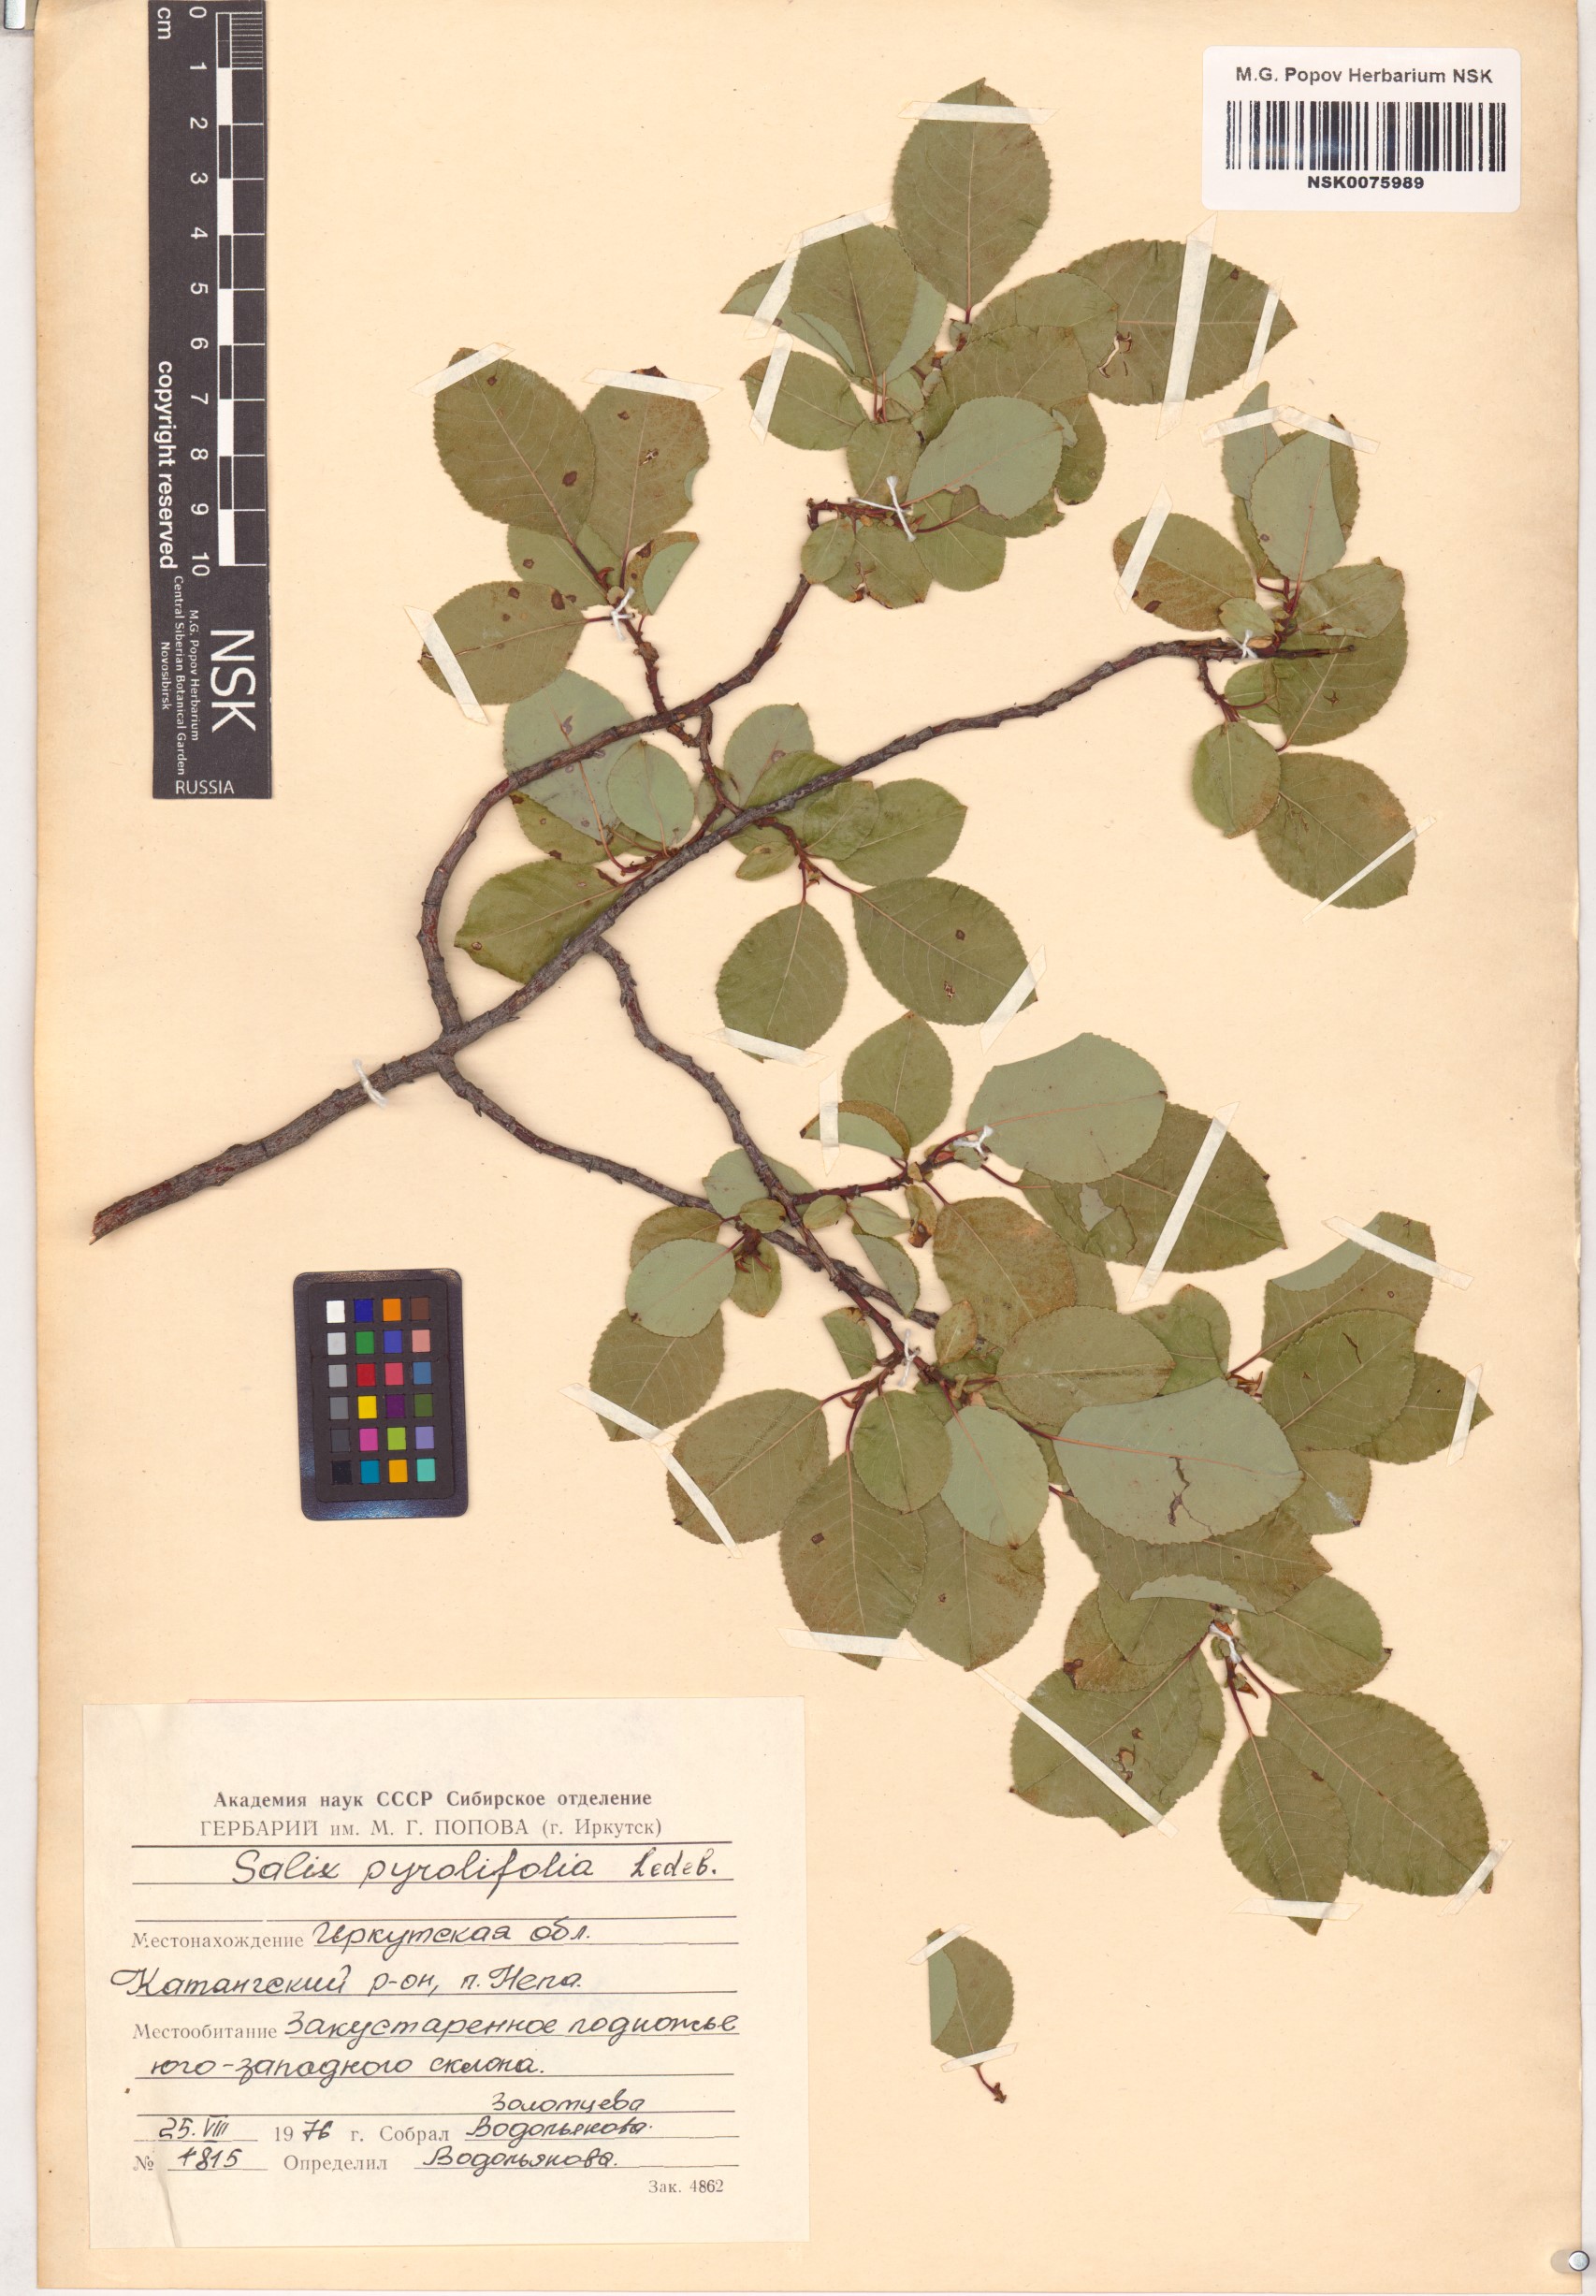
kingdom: Plantae
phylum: Tracheophyta
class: Magnoliopsida
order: Malpighiales
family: Salicaceae
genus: Salix
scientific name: Salix pyrolifolia
